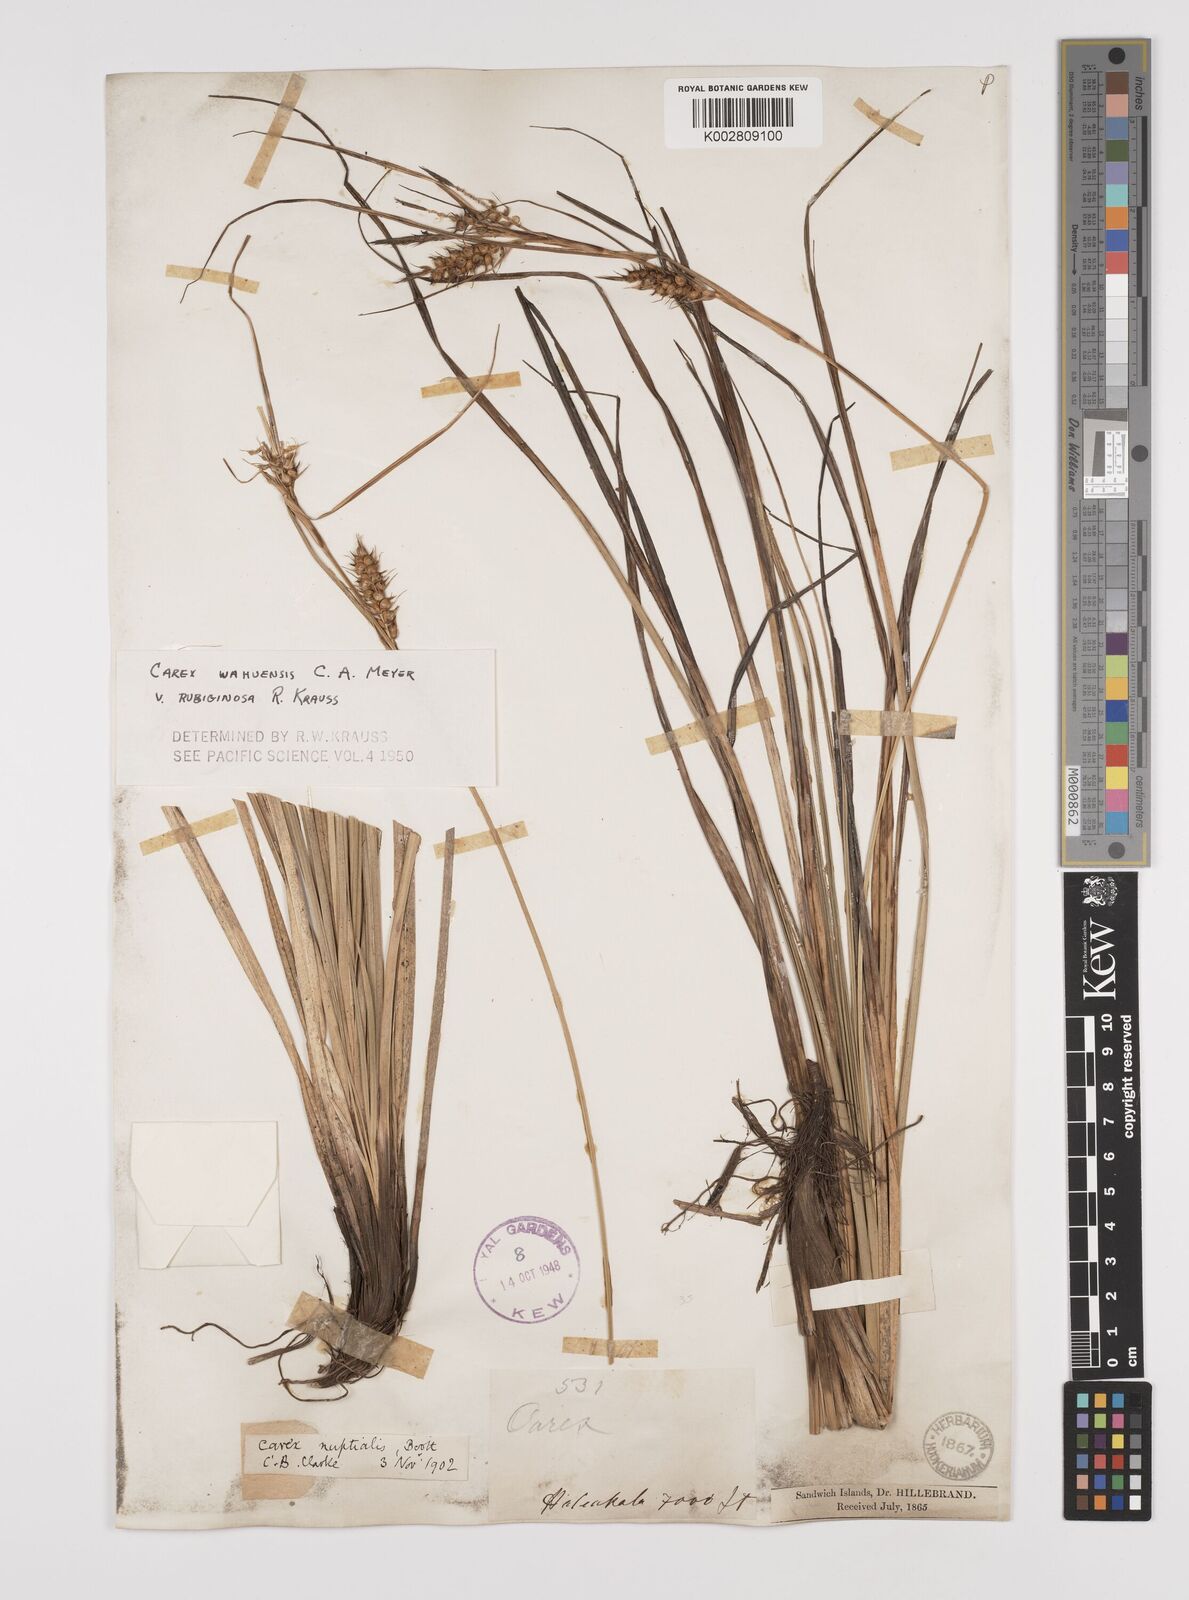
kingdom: Plantae
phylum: Tracheophyta
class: Liliopsida
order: Poales
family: Cyperaceae
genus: Carex
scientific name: Carex wahuensis
